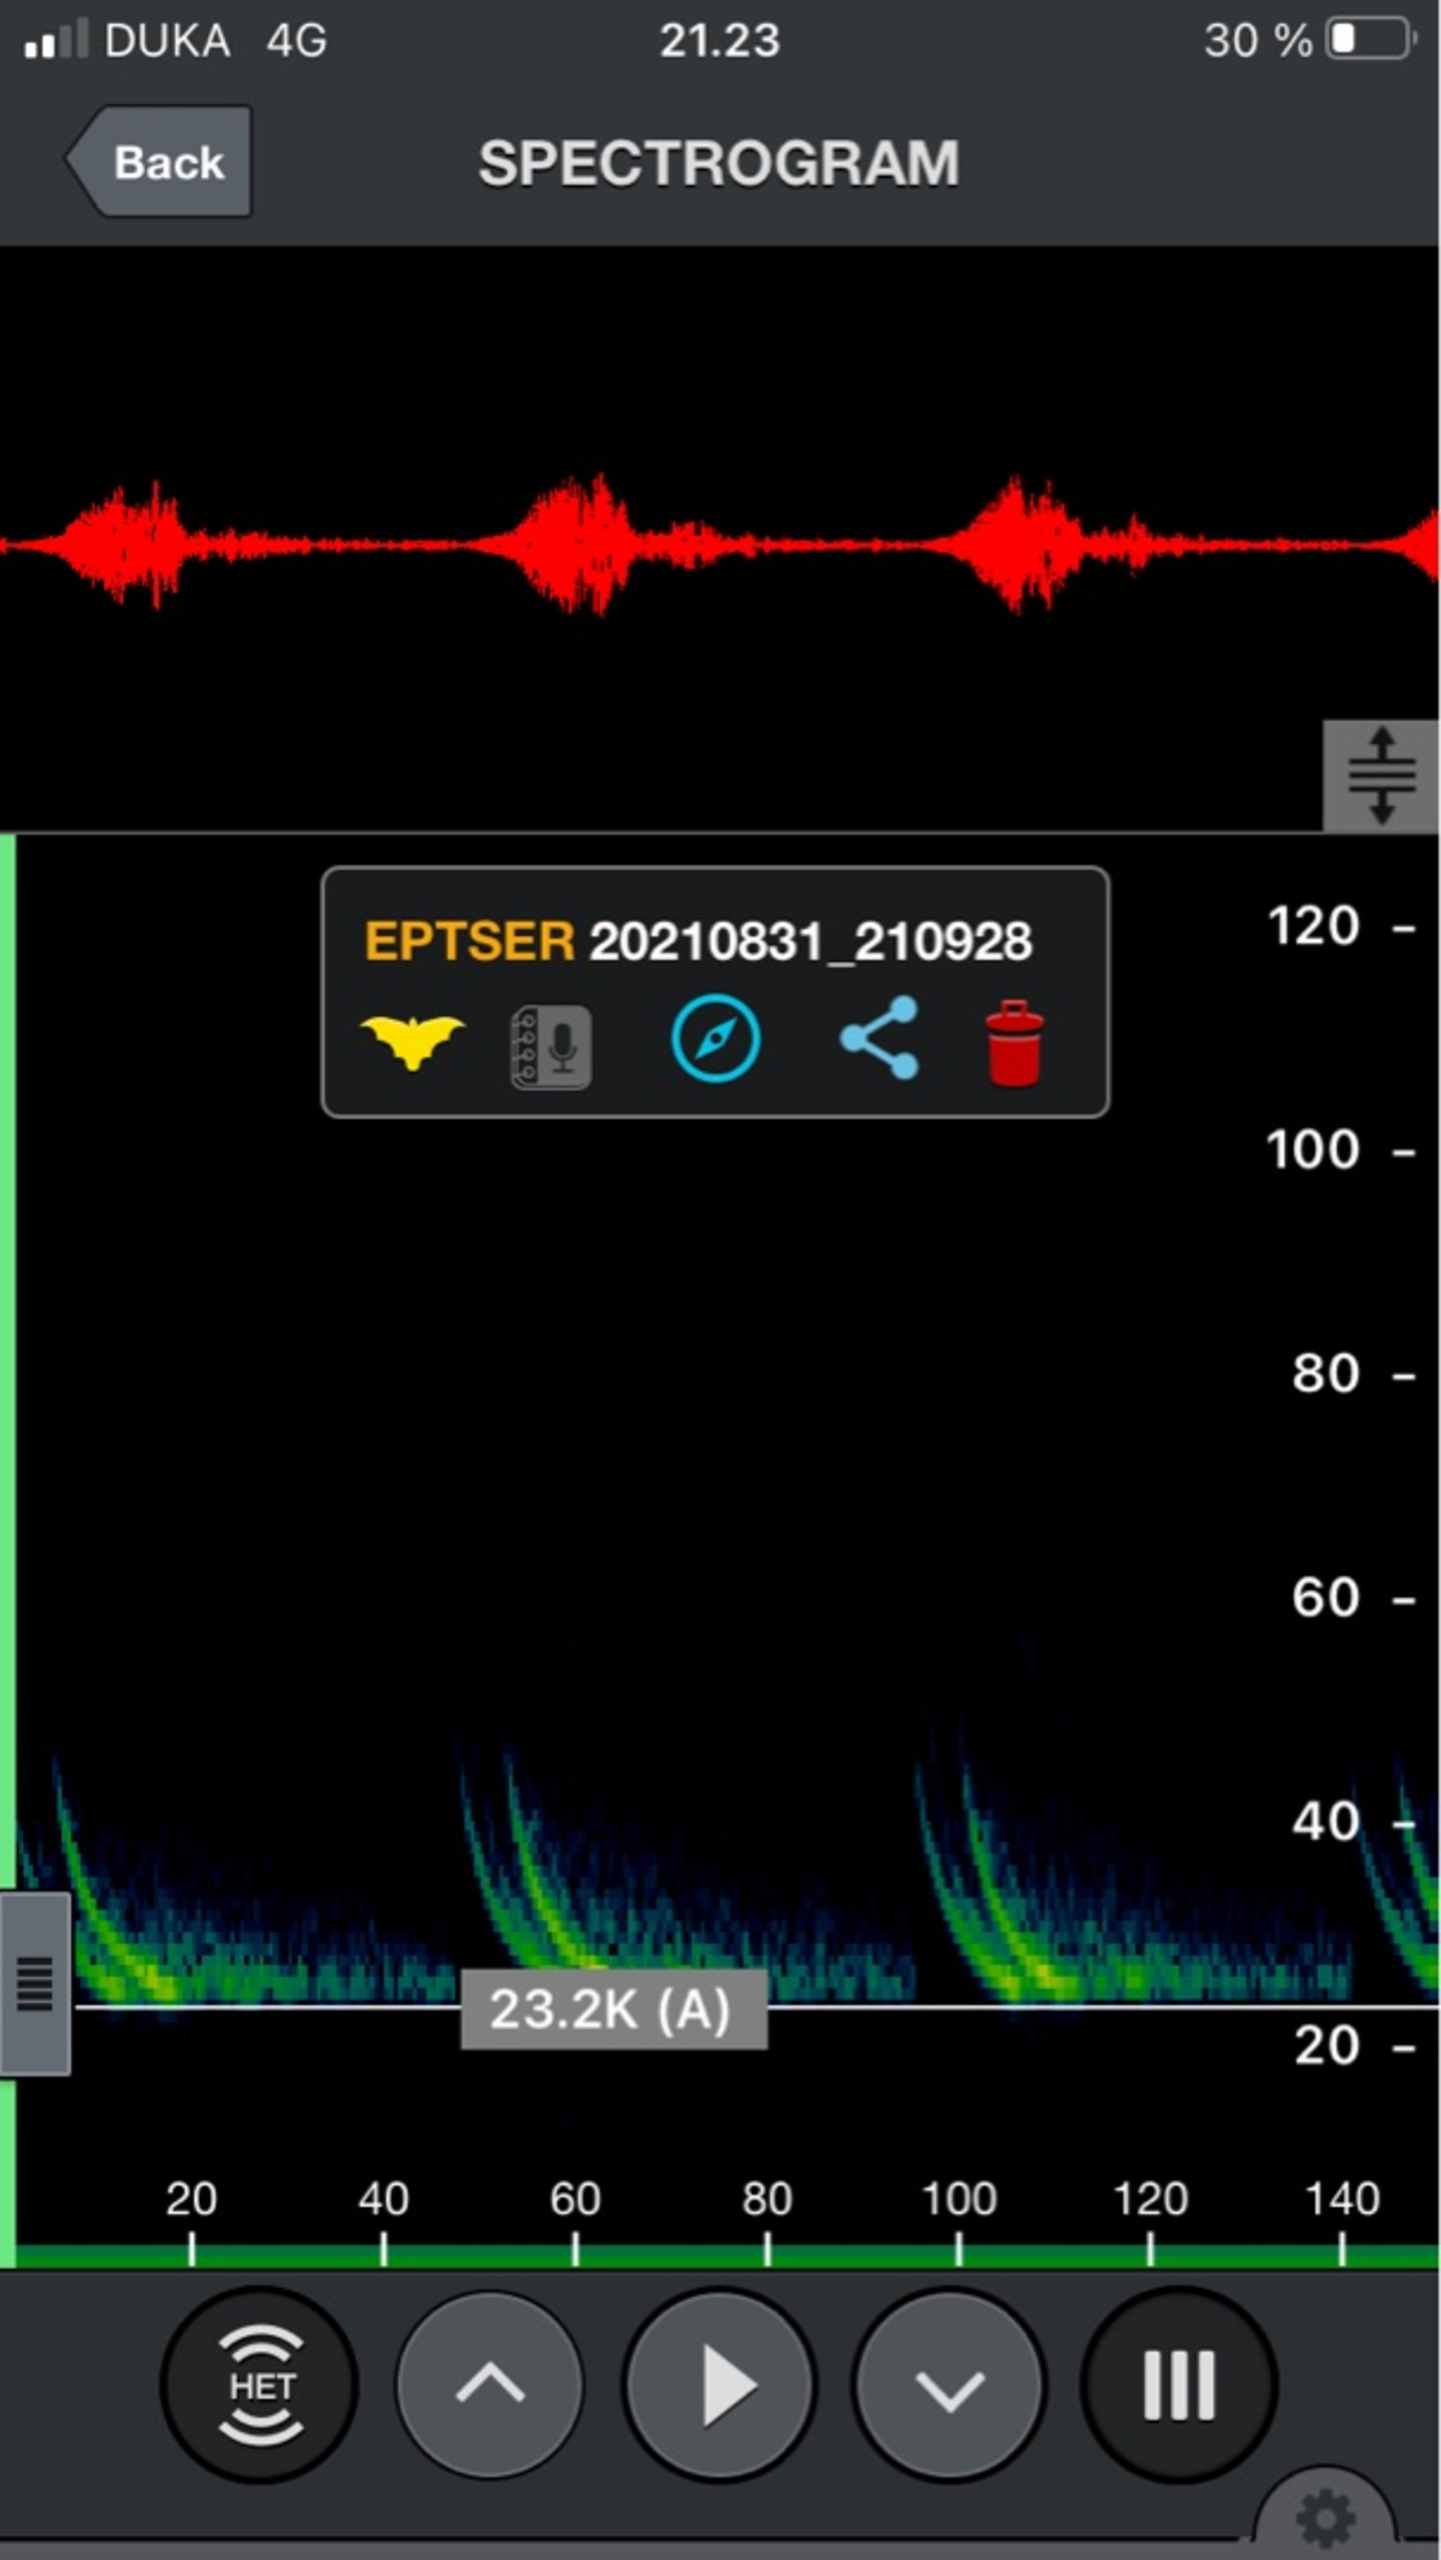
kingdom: Animalia
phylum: Chordata
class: Mammalia
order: Chiroptera
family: Vespertilionidae
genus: Eptesicus
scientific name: Eptesicus serotinus
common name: Sydflagermus
